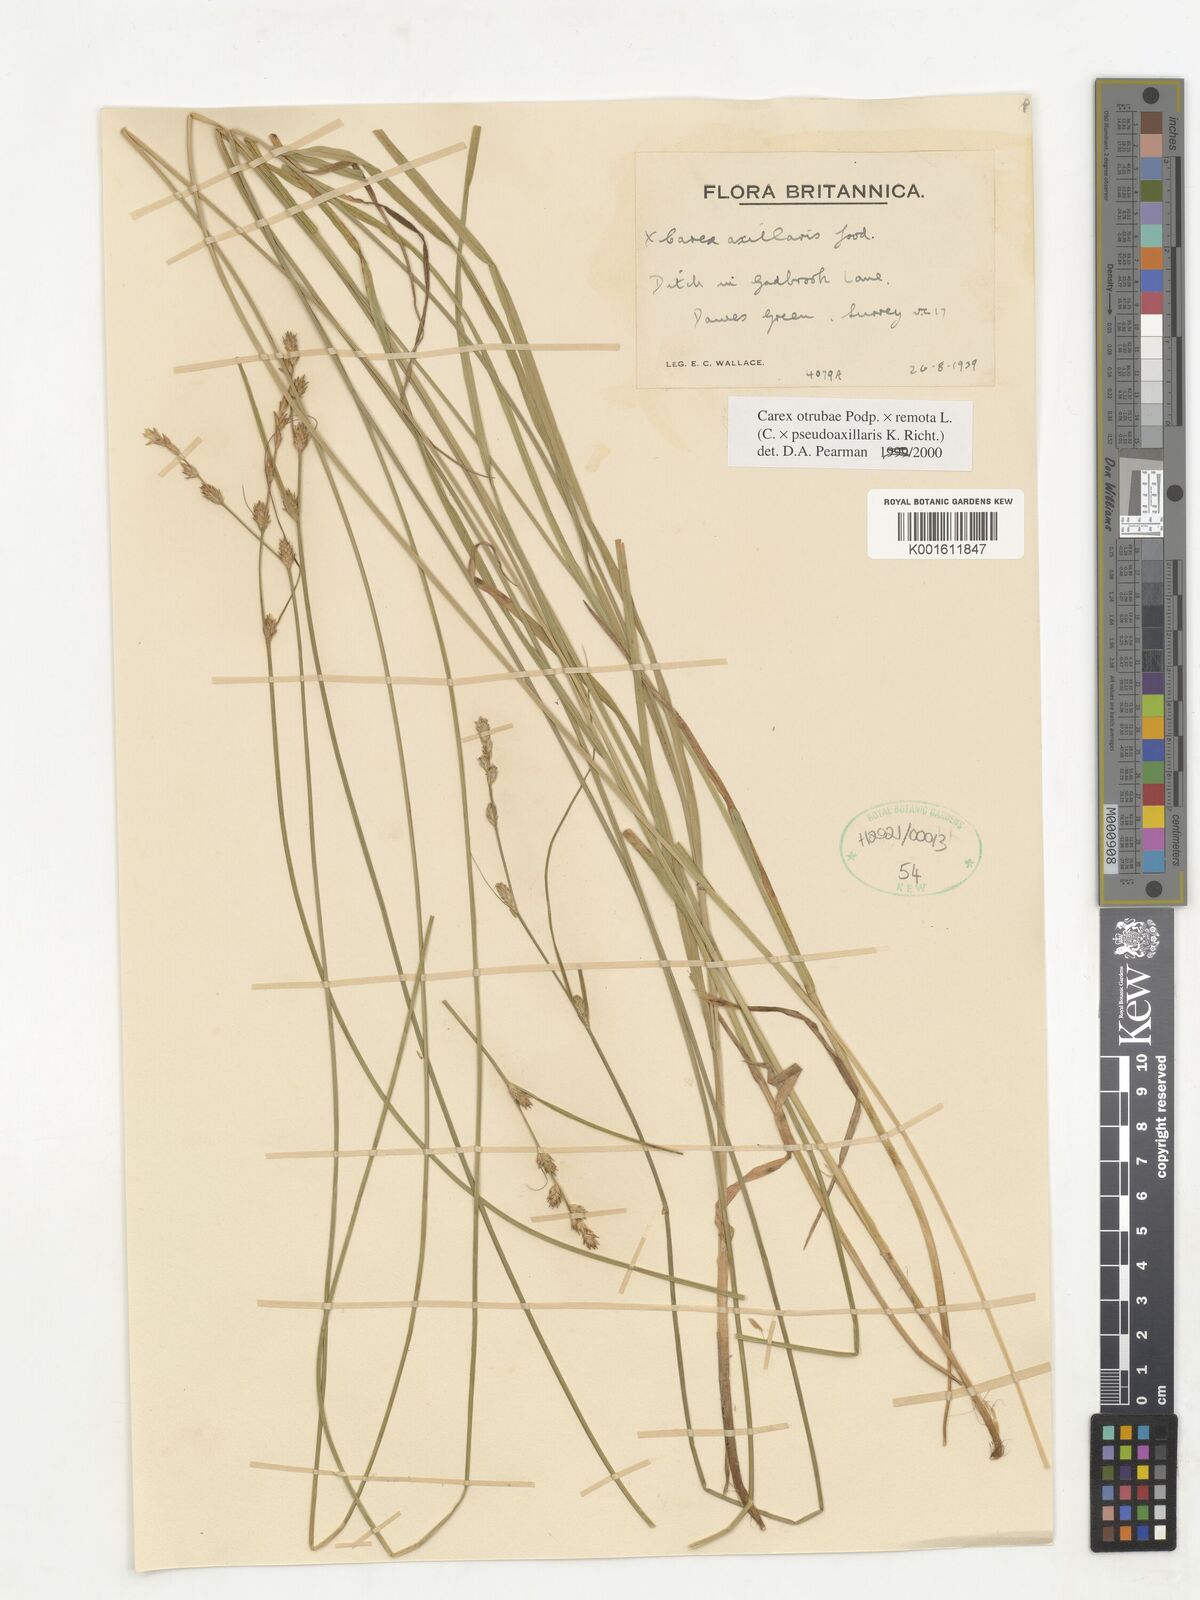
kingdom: Plantae
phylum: Tracheophyta
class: Liliopsida
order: Poales
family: Cyperaceae
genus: Carex
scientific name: Carex pseudoaxillaris
